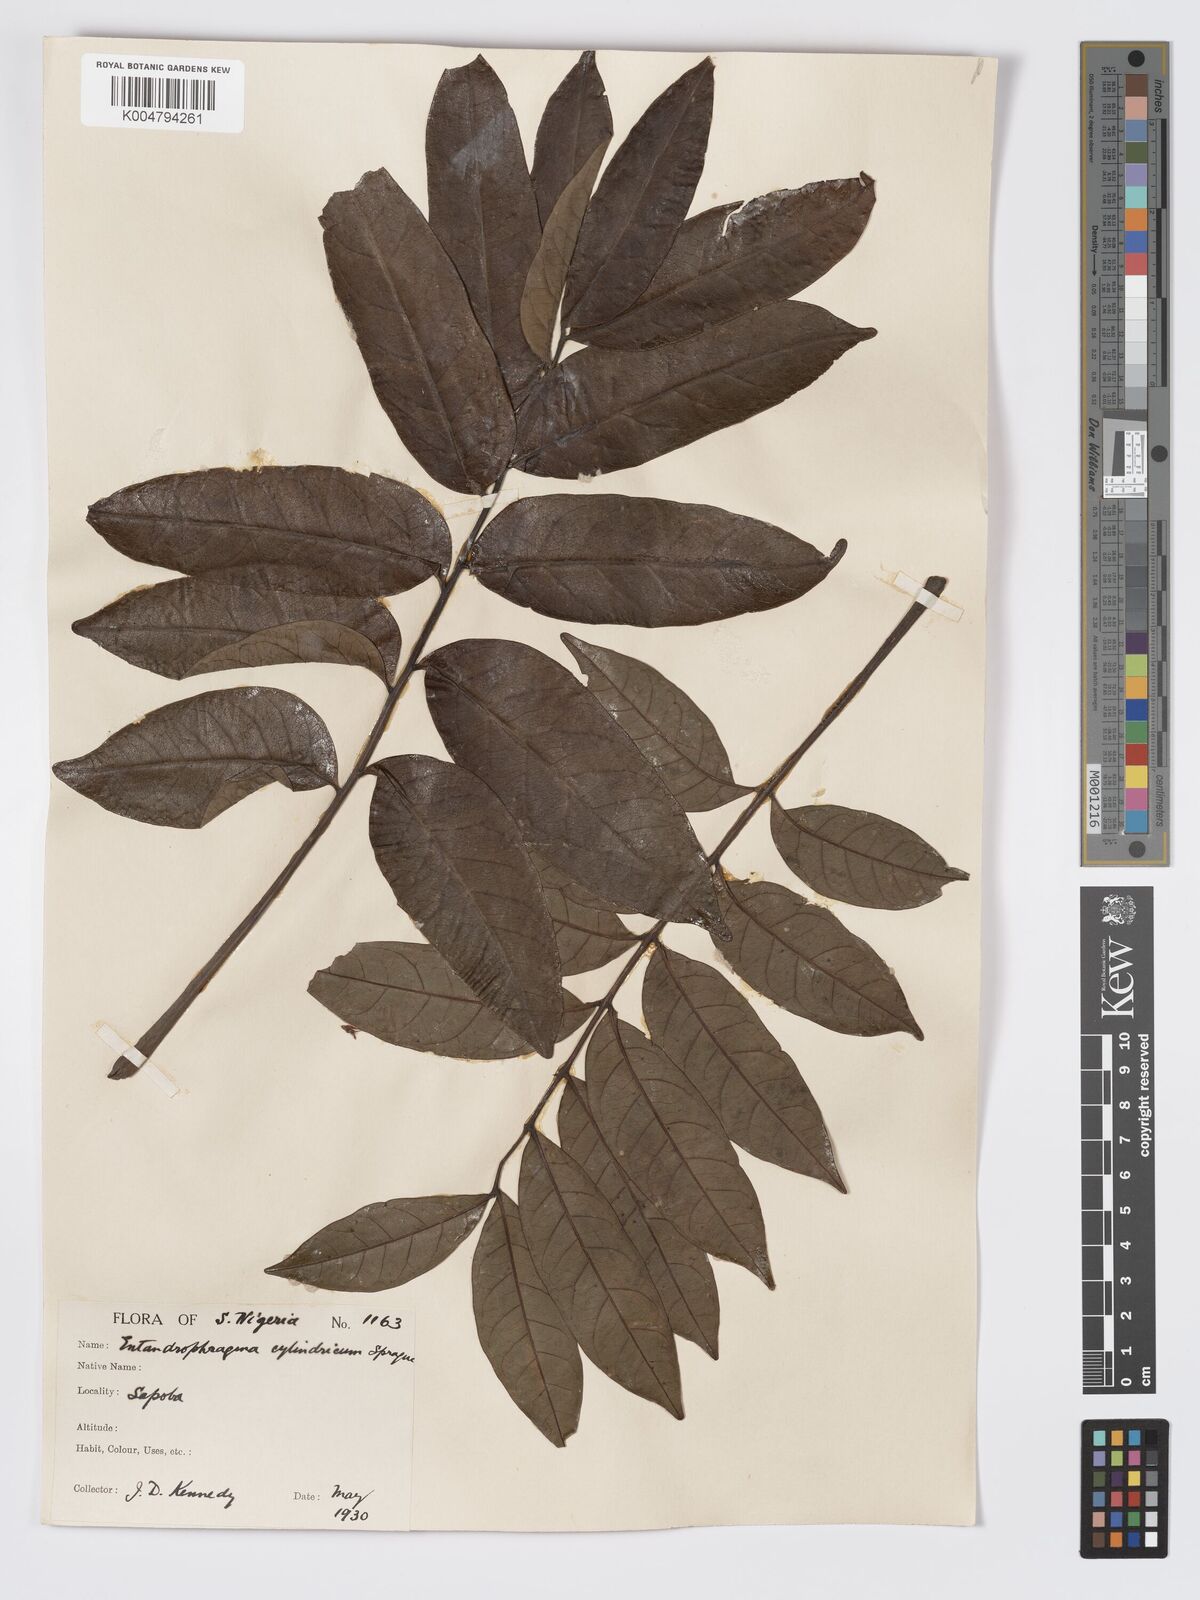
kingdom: Plantae
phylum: Tracheophyta
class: Magnoliopsida
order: Sapindales
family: Meliaceae
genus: Entandrophragma
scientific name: Entandrophragma cylindricum
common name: Sapele
